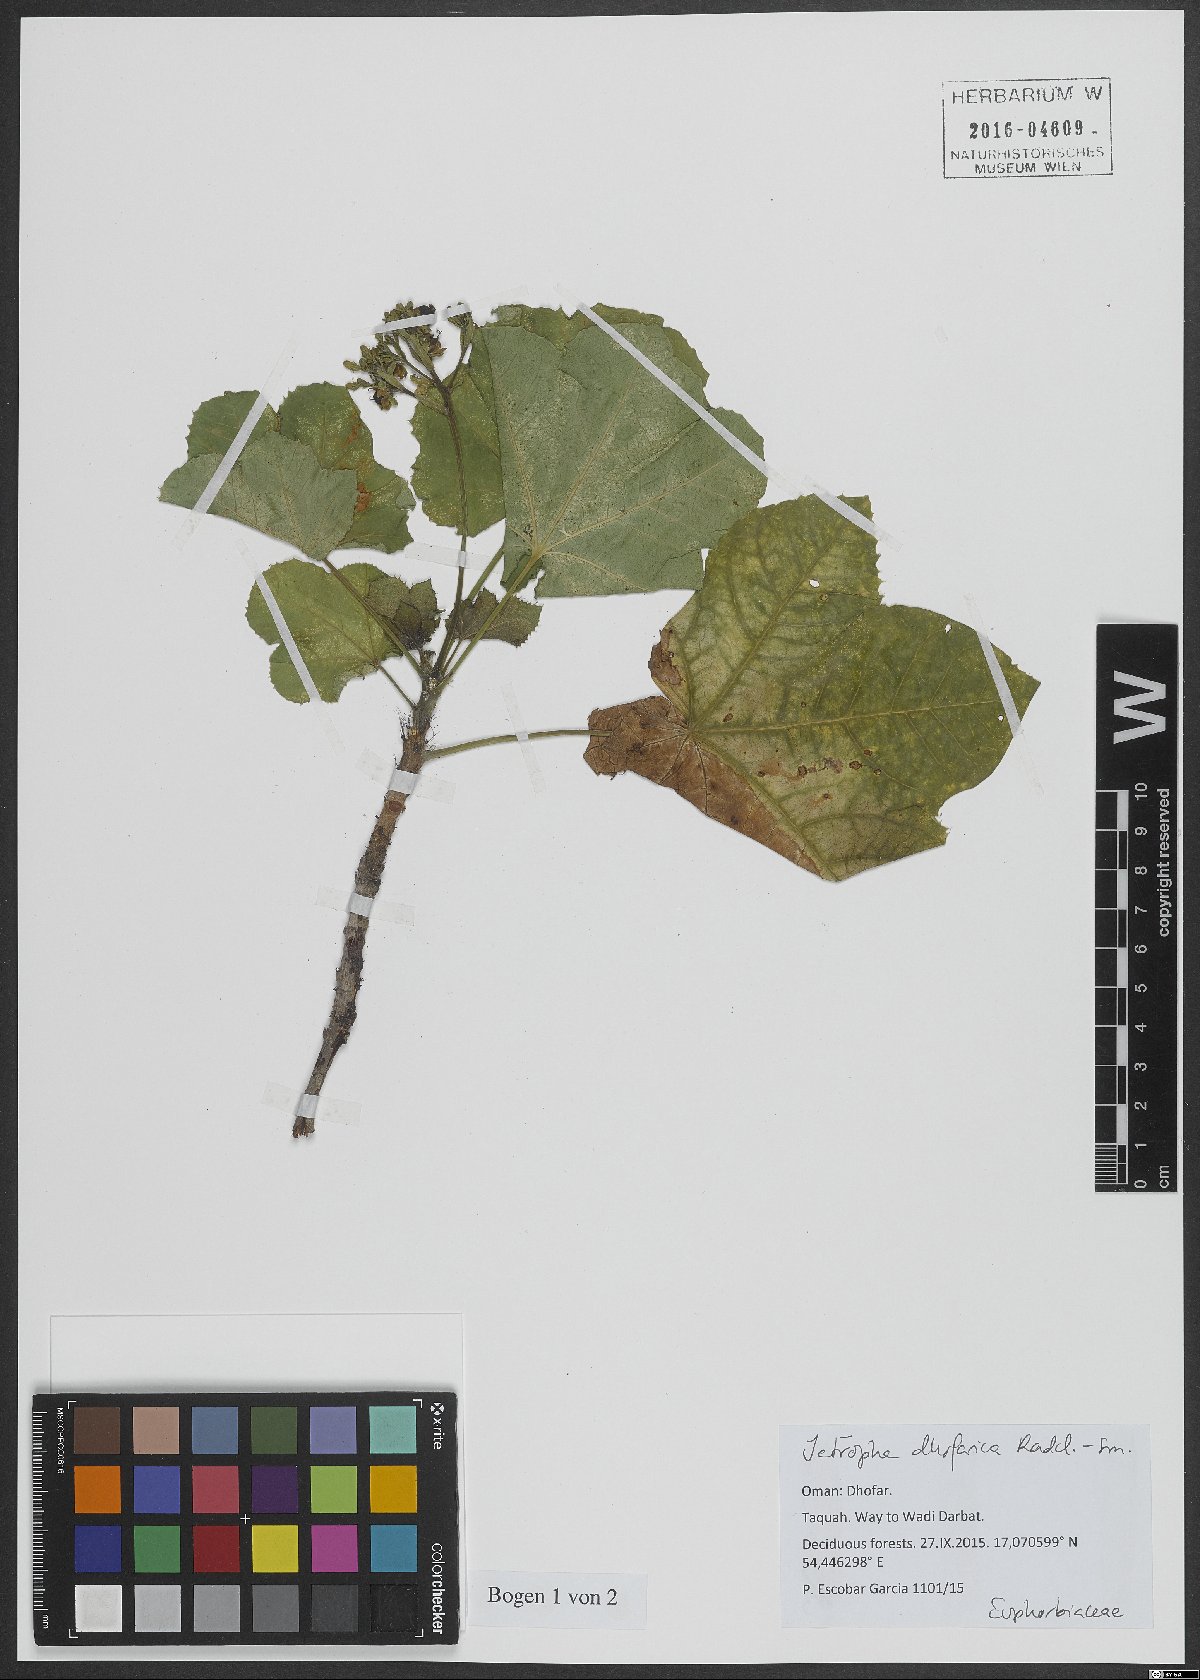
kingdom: Plantae
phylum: Tracheophyta
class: Magnoliopsida
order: Malpighiales
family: Euphorbiaceae
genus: Jatropha
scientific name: Jatropha dhofarica
